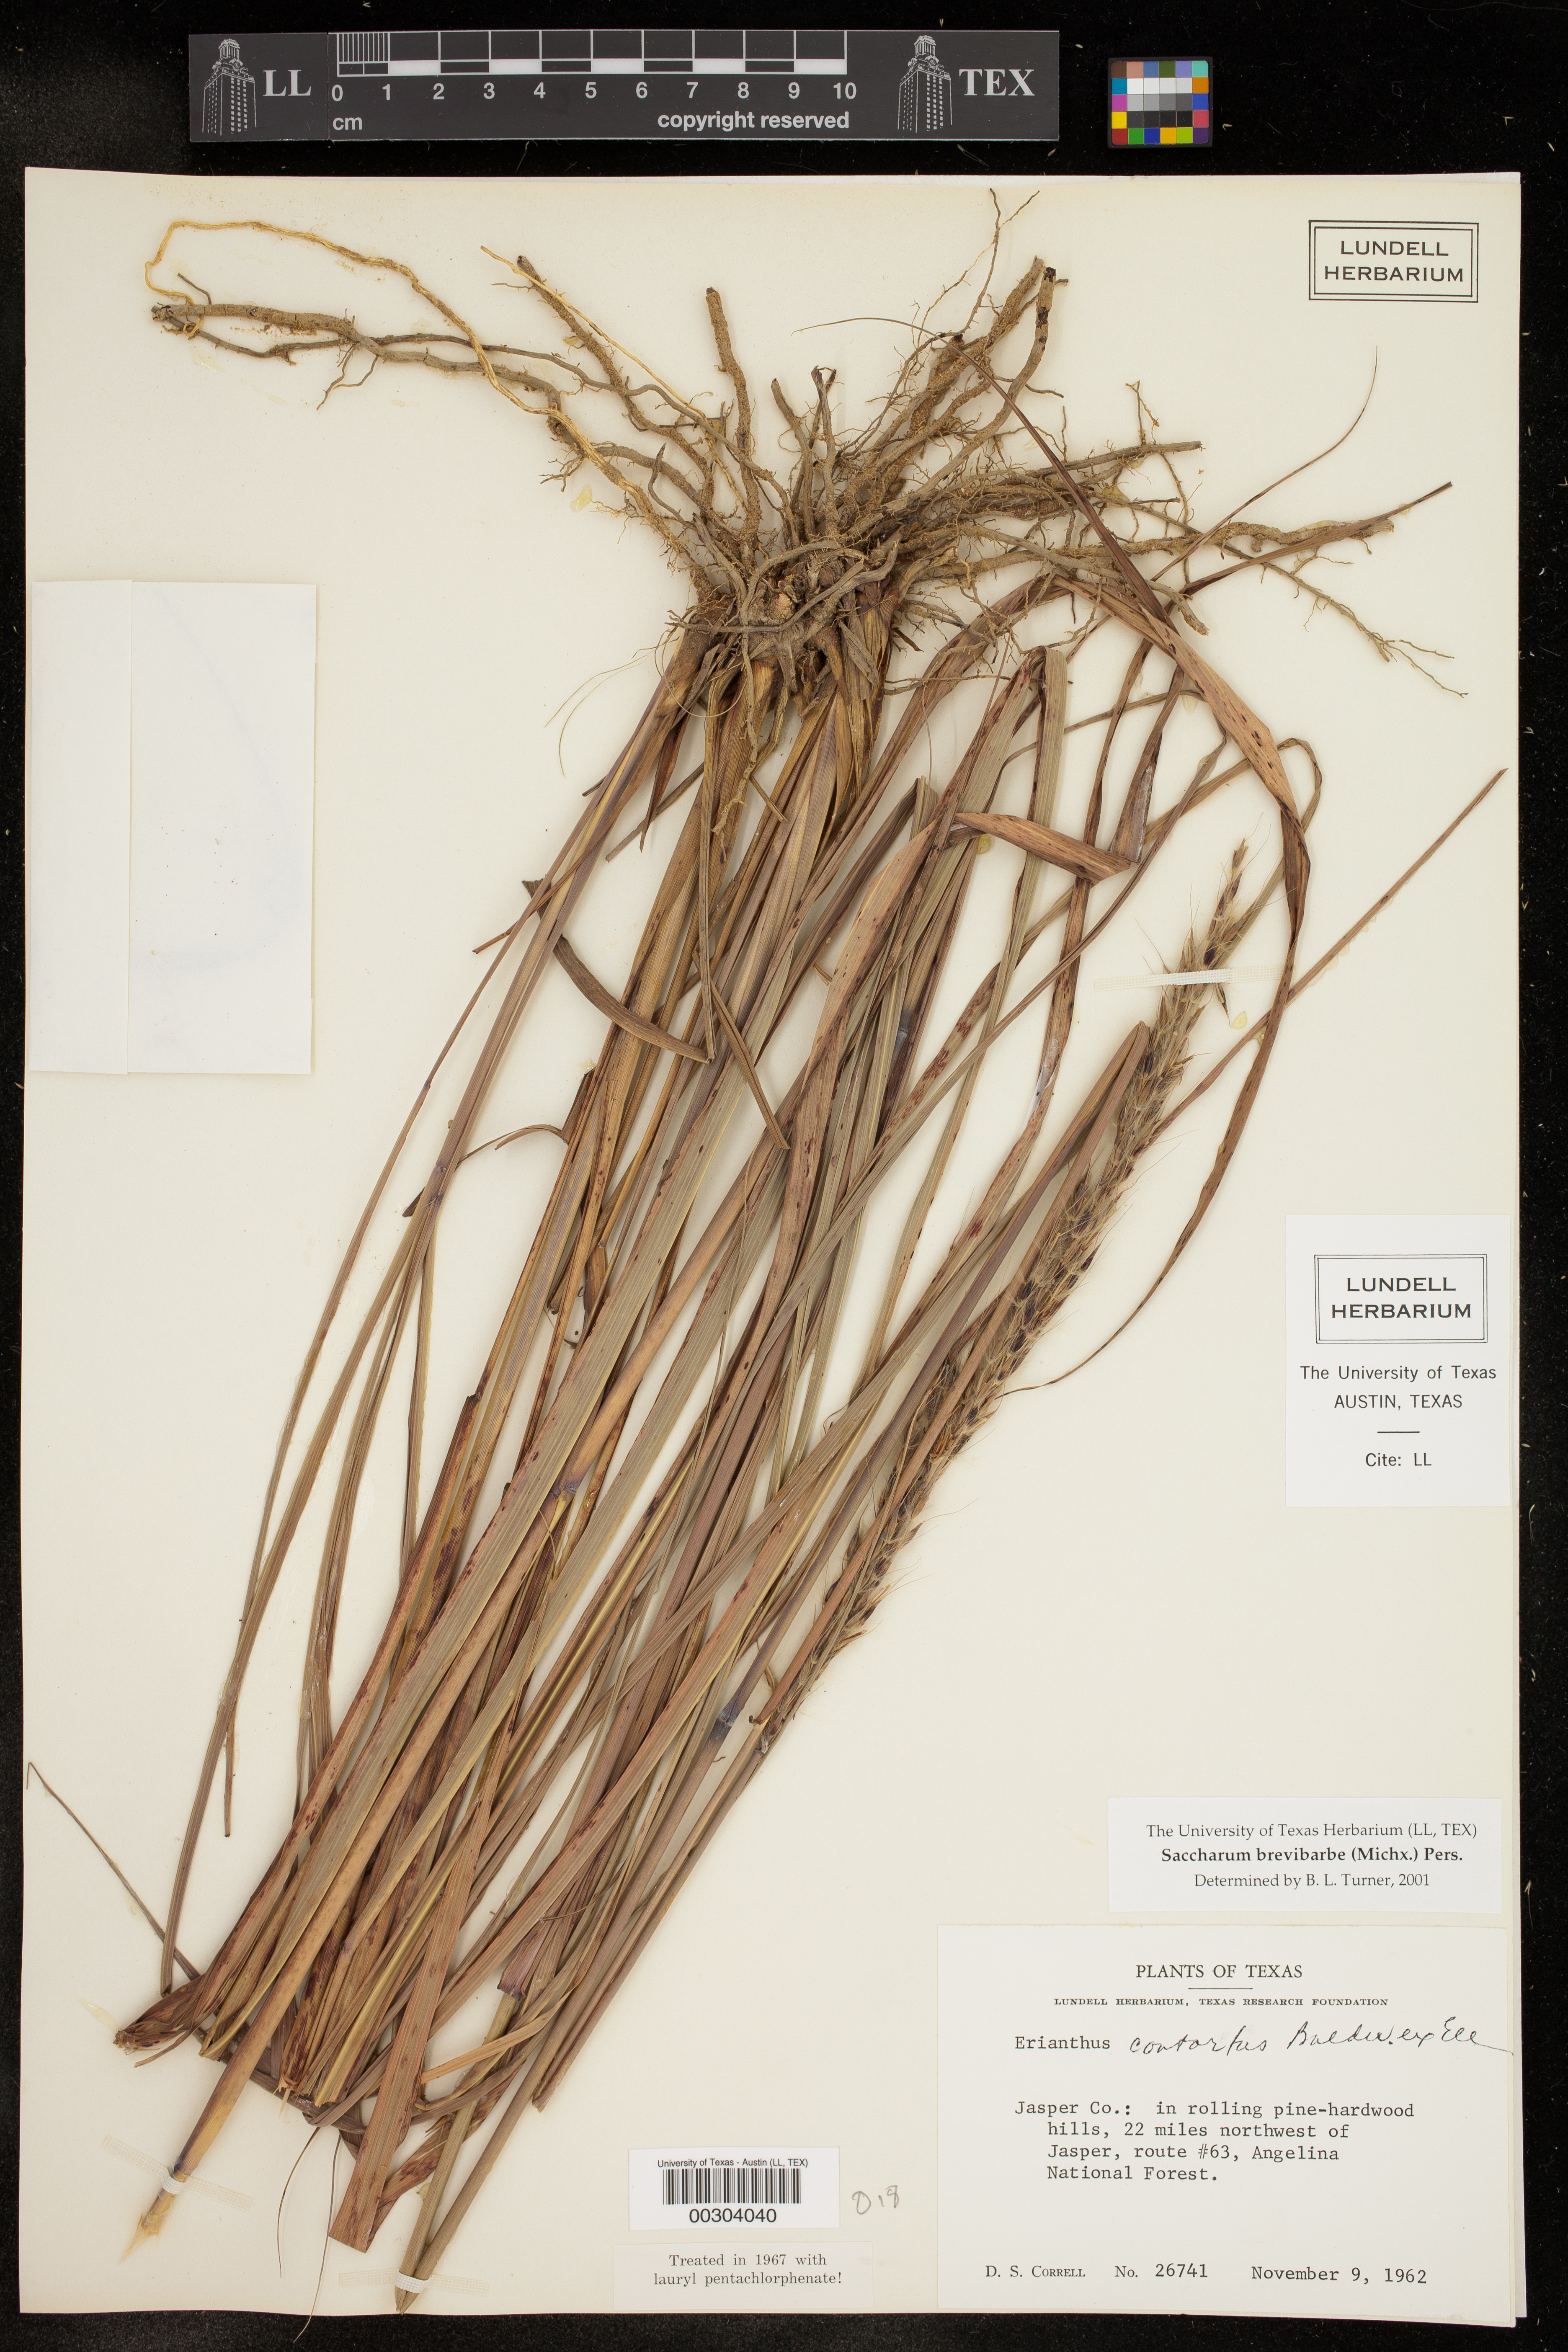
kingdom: Plantae
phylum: Tracheophyta
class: Liliopsida
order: Poales
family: Poaceae
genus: Erianthus
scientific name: Erianthus brevibarbis
